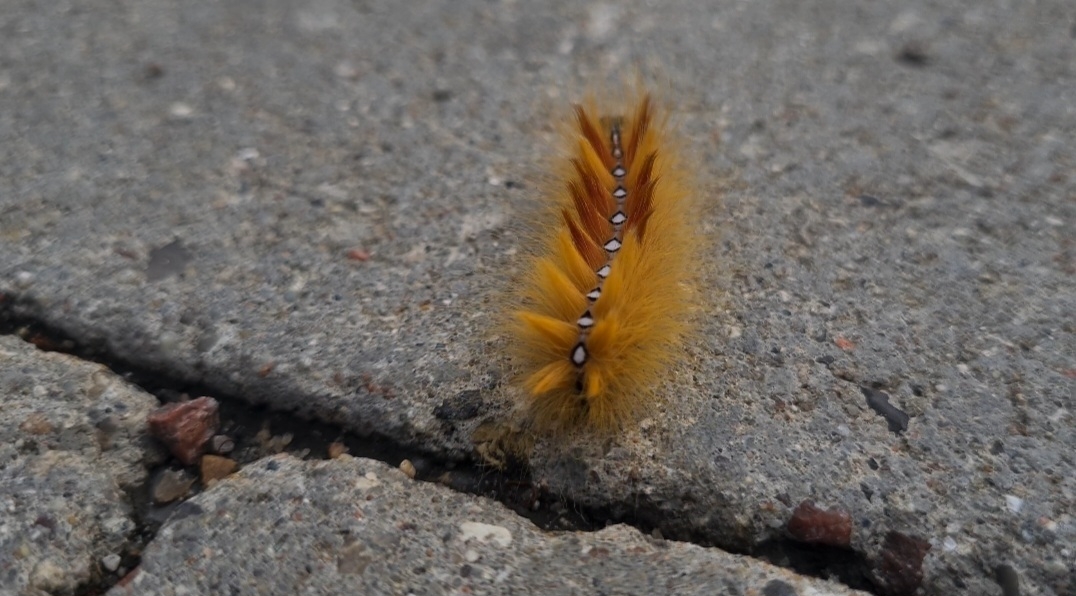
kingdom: Animalia
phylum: Arthropoda
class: Insecta
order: Lepidoptera
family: Noctuidae
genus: Acronicta
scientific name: Acronicta aceris
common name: Ahornugle
